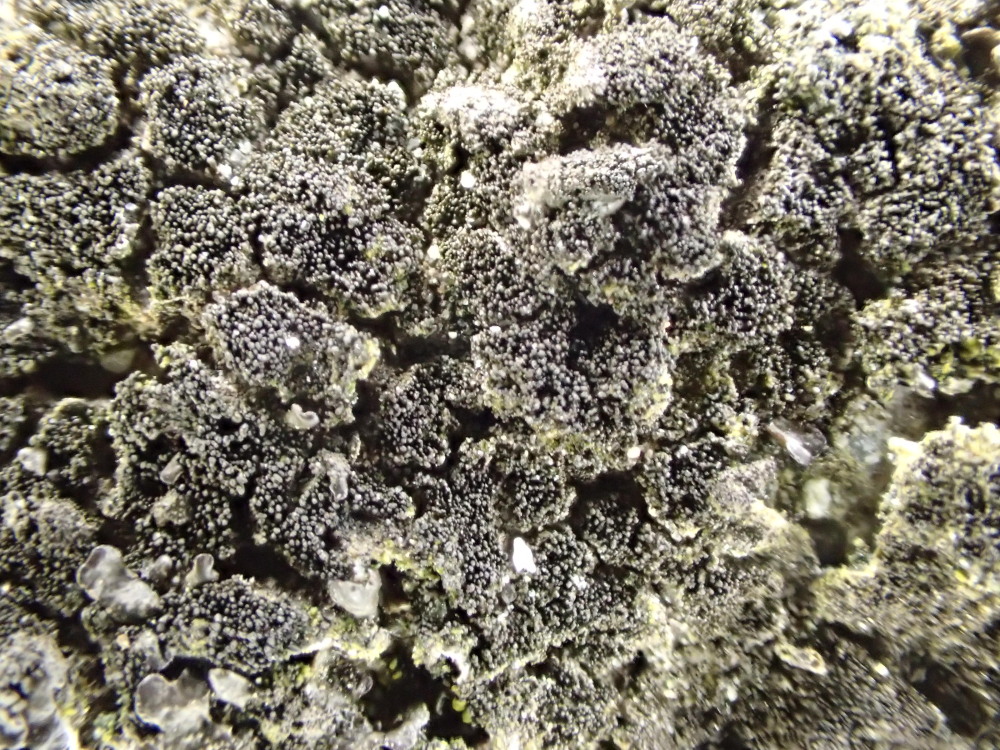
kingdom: Fungi
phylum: Ascomycota
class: Lecanoromycetes
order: Lecanorales
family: Parmeliaceae
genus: Melanelixia
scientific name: Melanelixia fuliginosa
